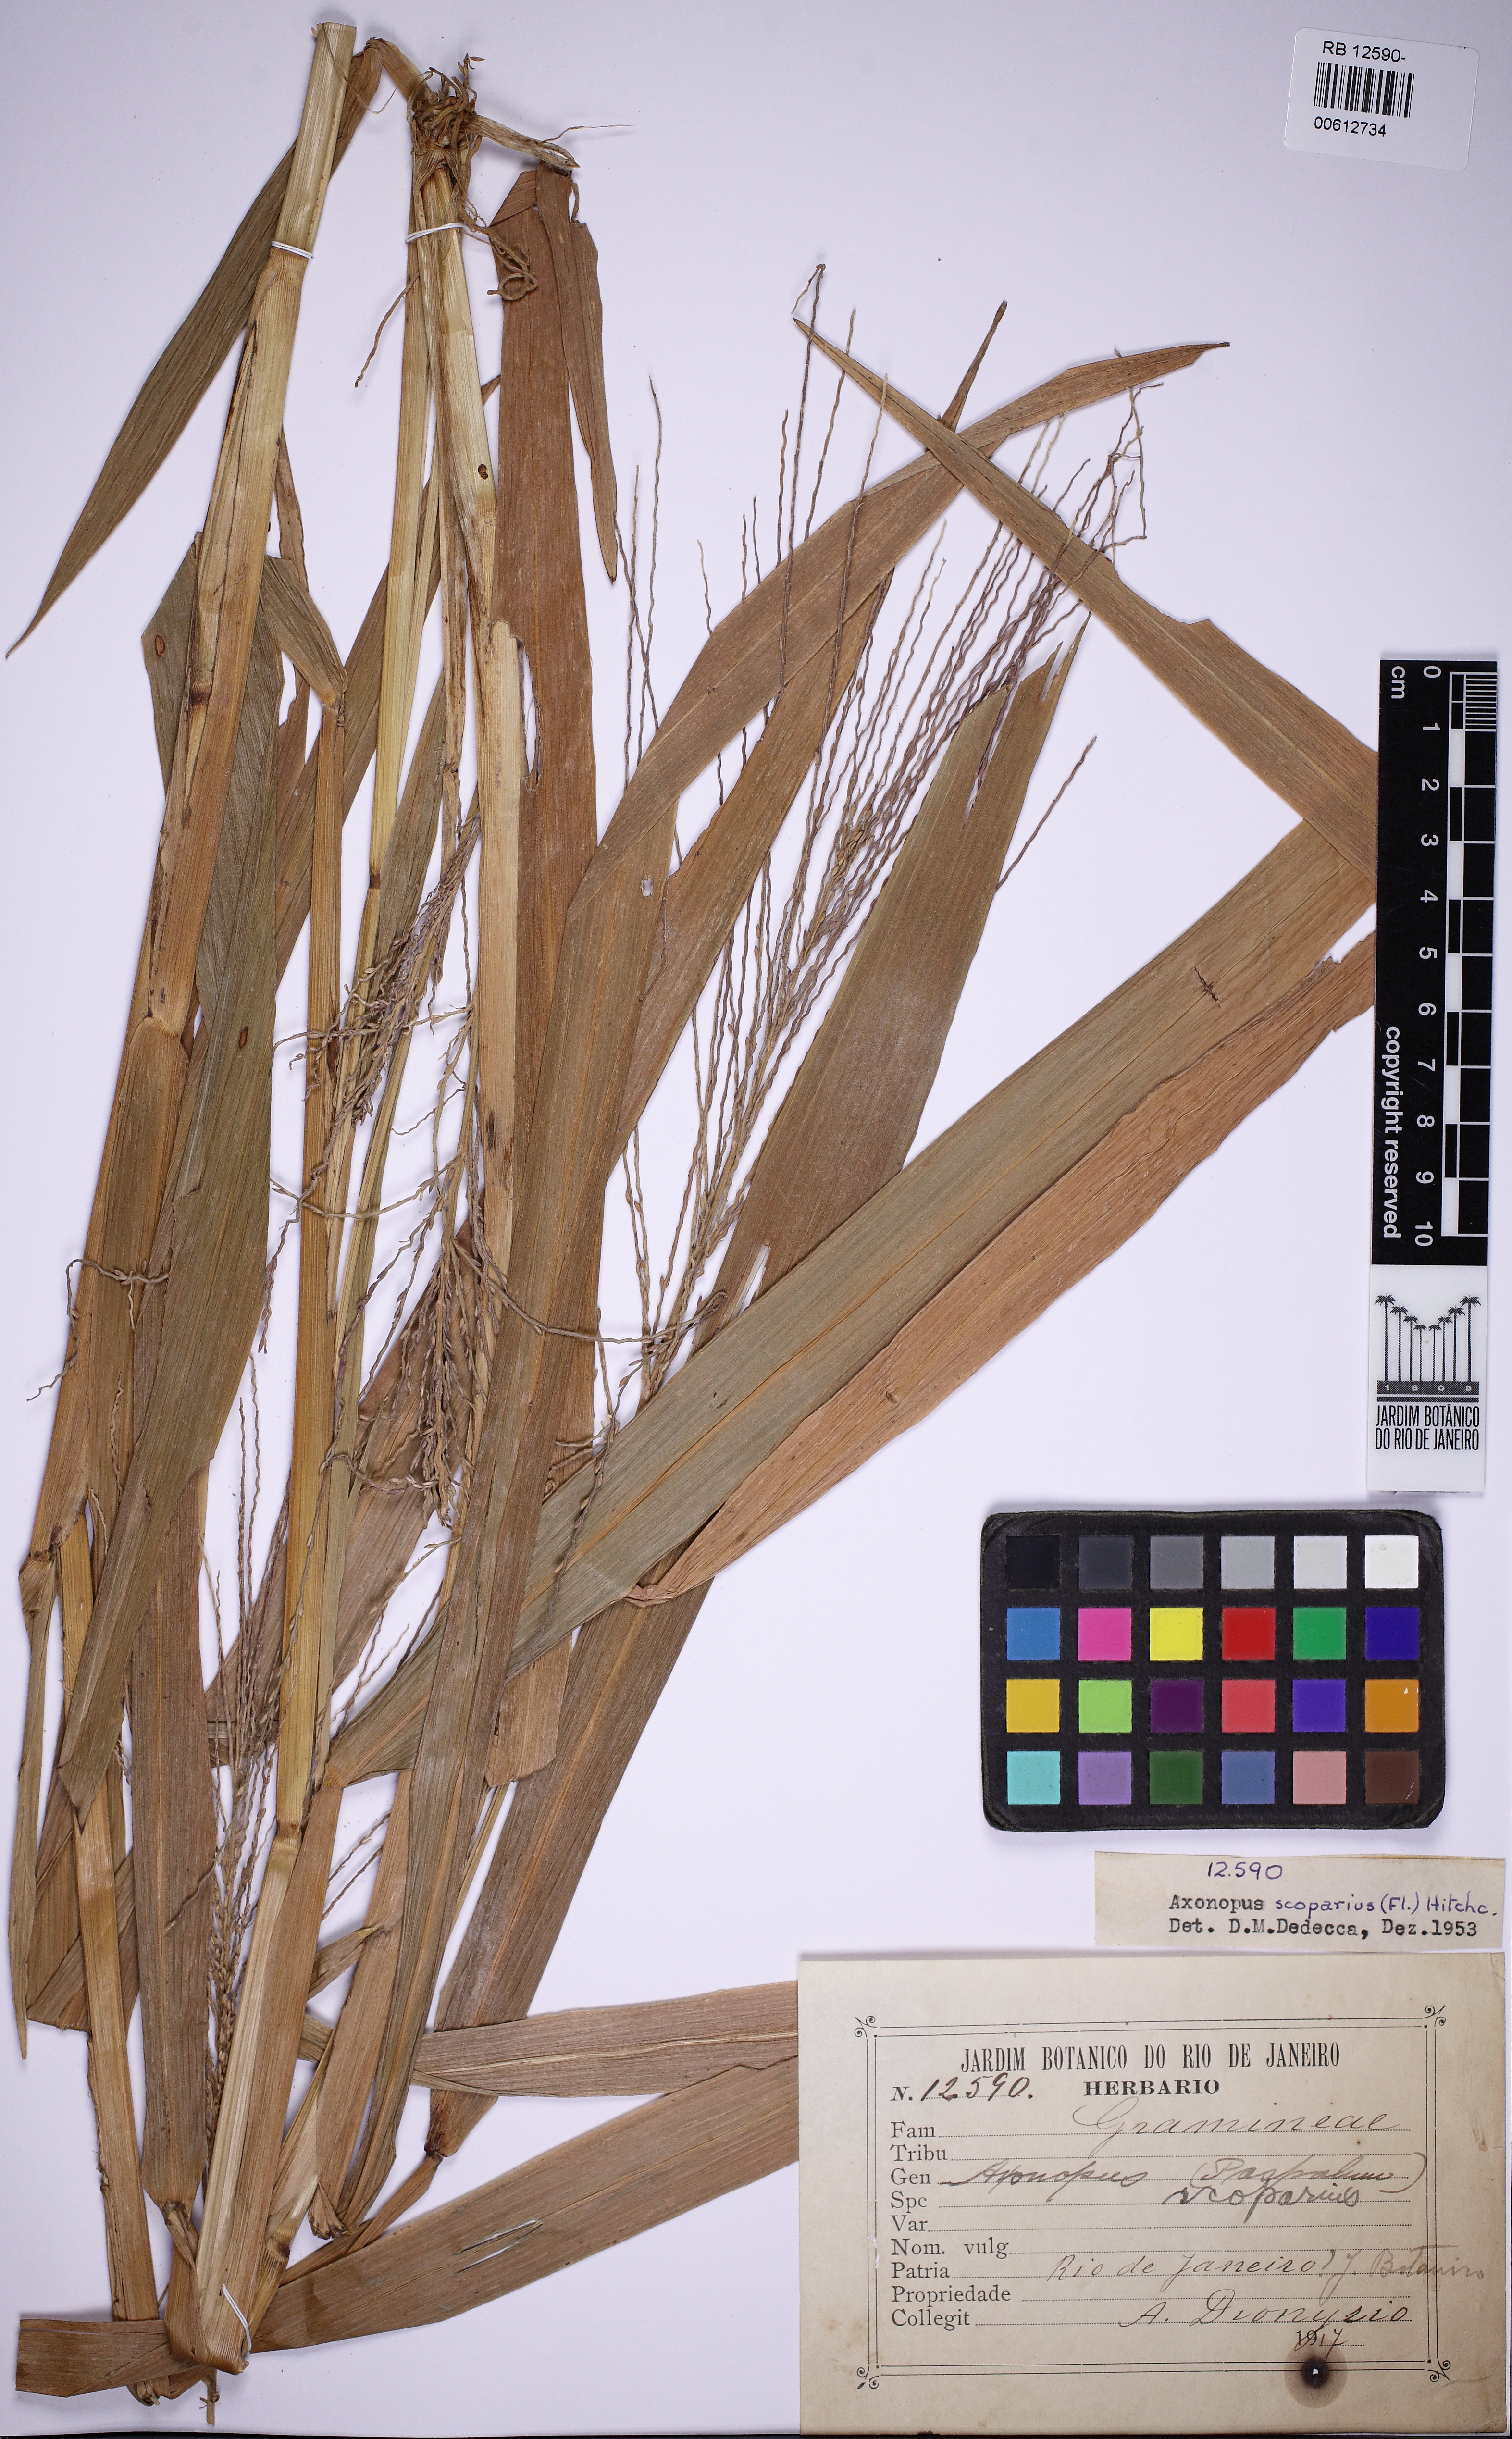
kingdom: Plantae
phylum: Tracheophyta
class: Liliopsida
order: Poales
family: Poaceae
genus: Axonopus
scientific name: Axonopus scoparius
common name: Imperial grass
